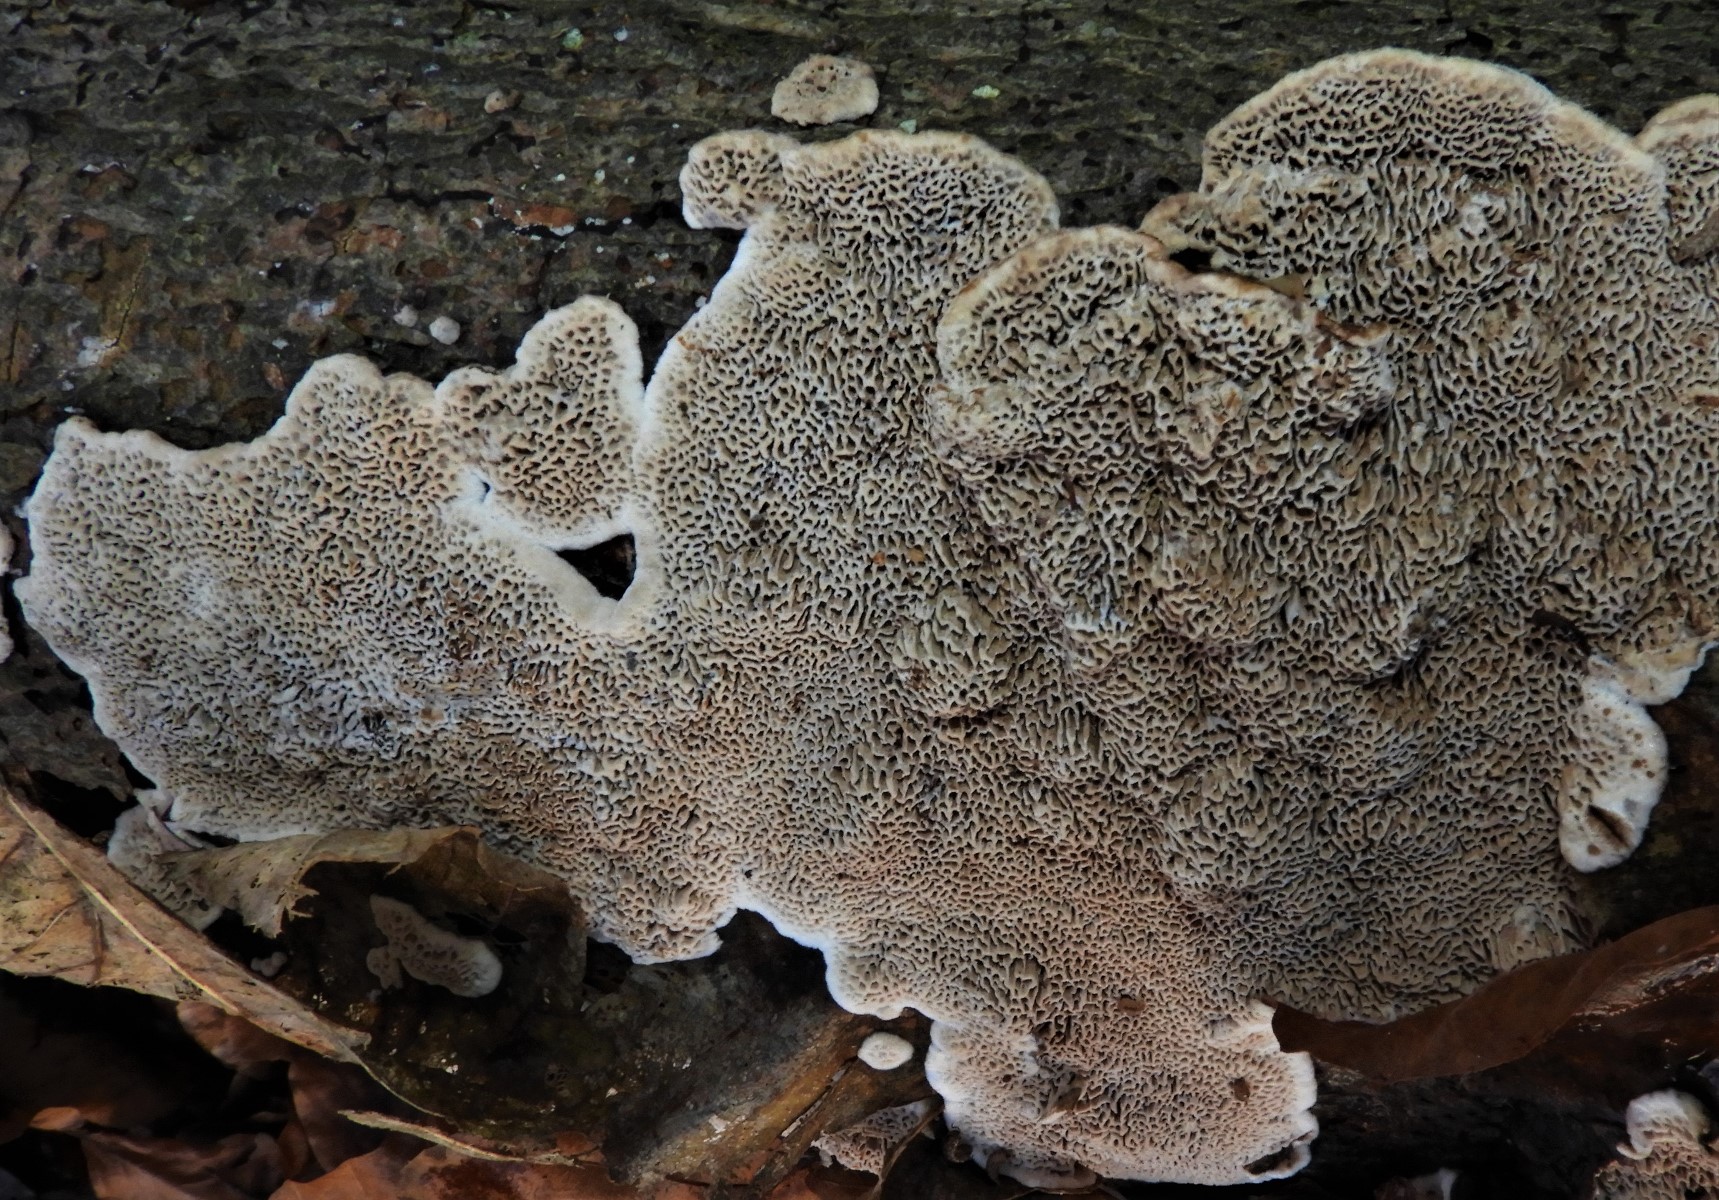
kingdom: Fungi
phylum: Basidiomycota
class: Agaricomycetes
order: Polyporales
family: Polyporaceae
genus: Podofomes
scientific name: Podofomes mollis
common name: blød begporesvamp
